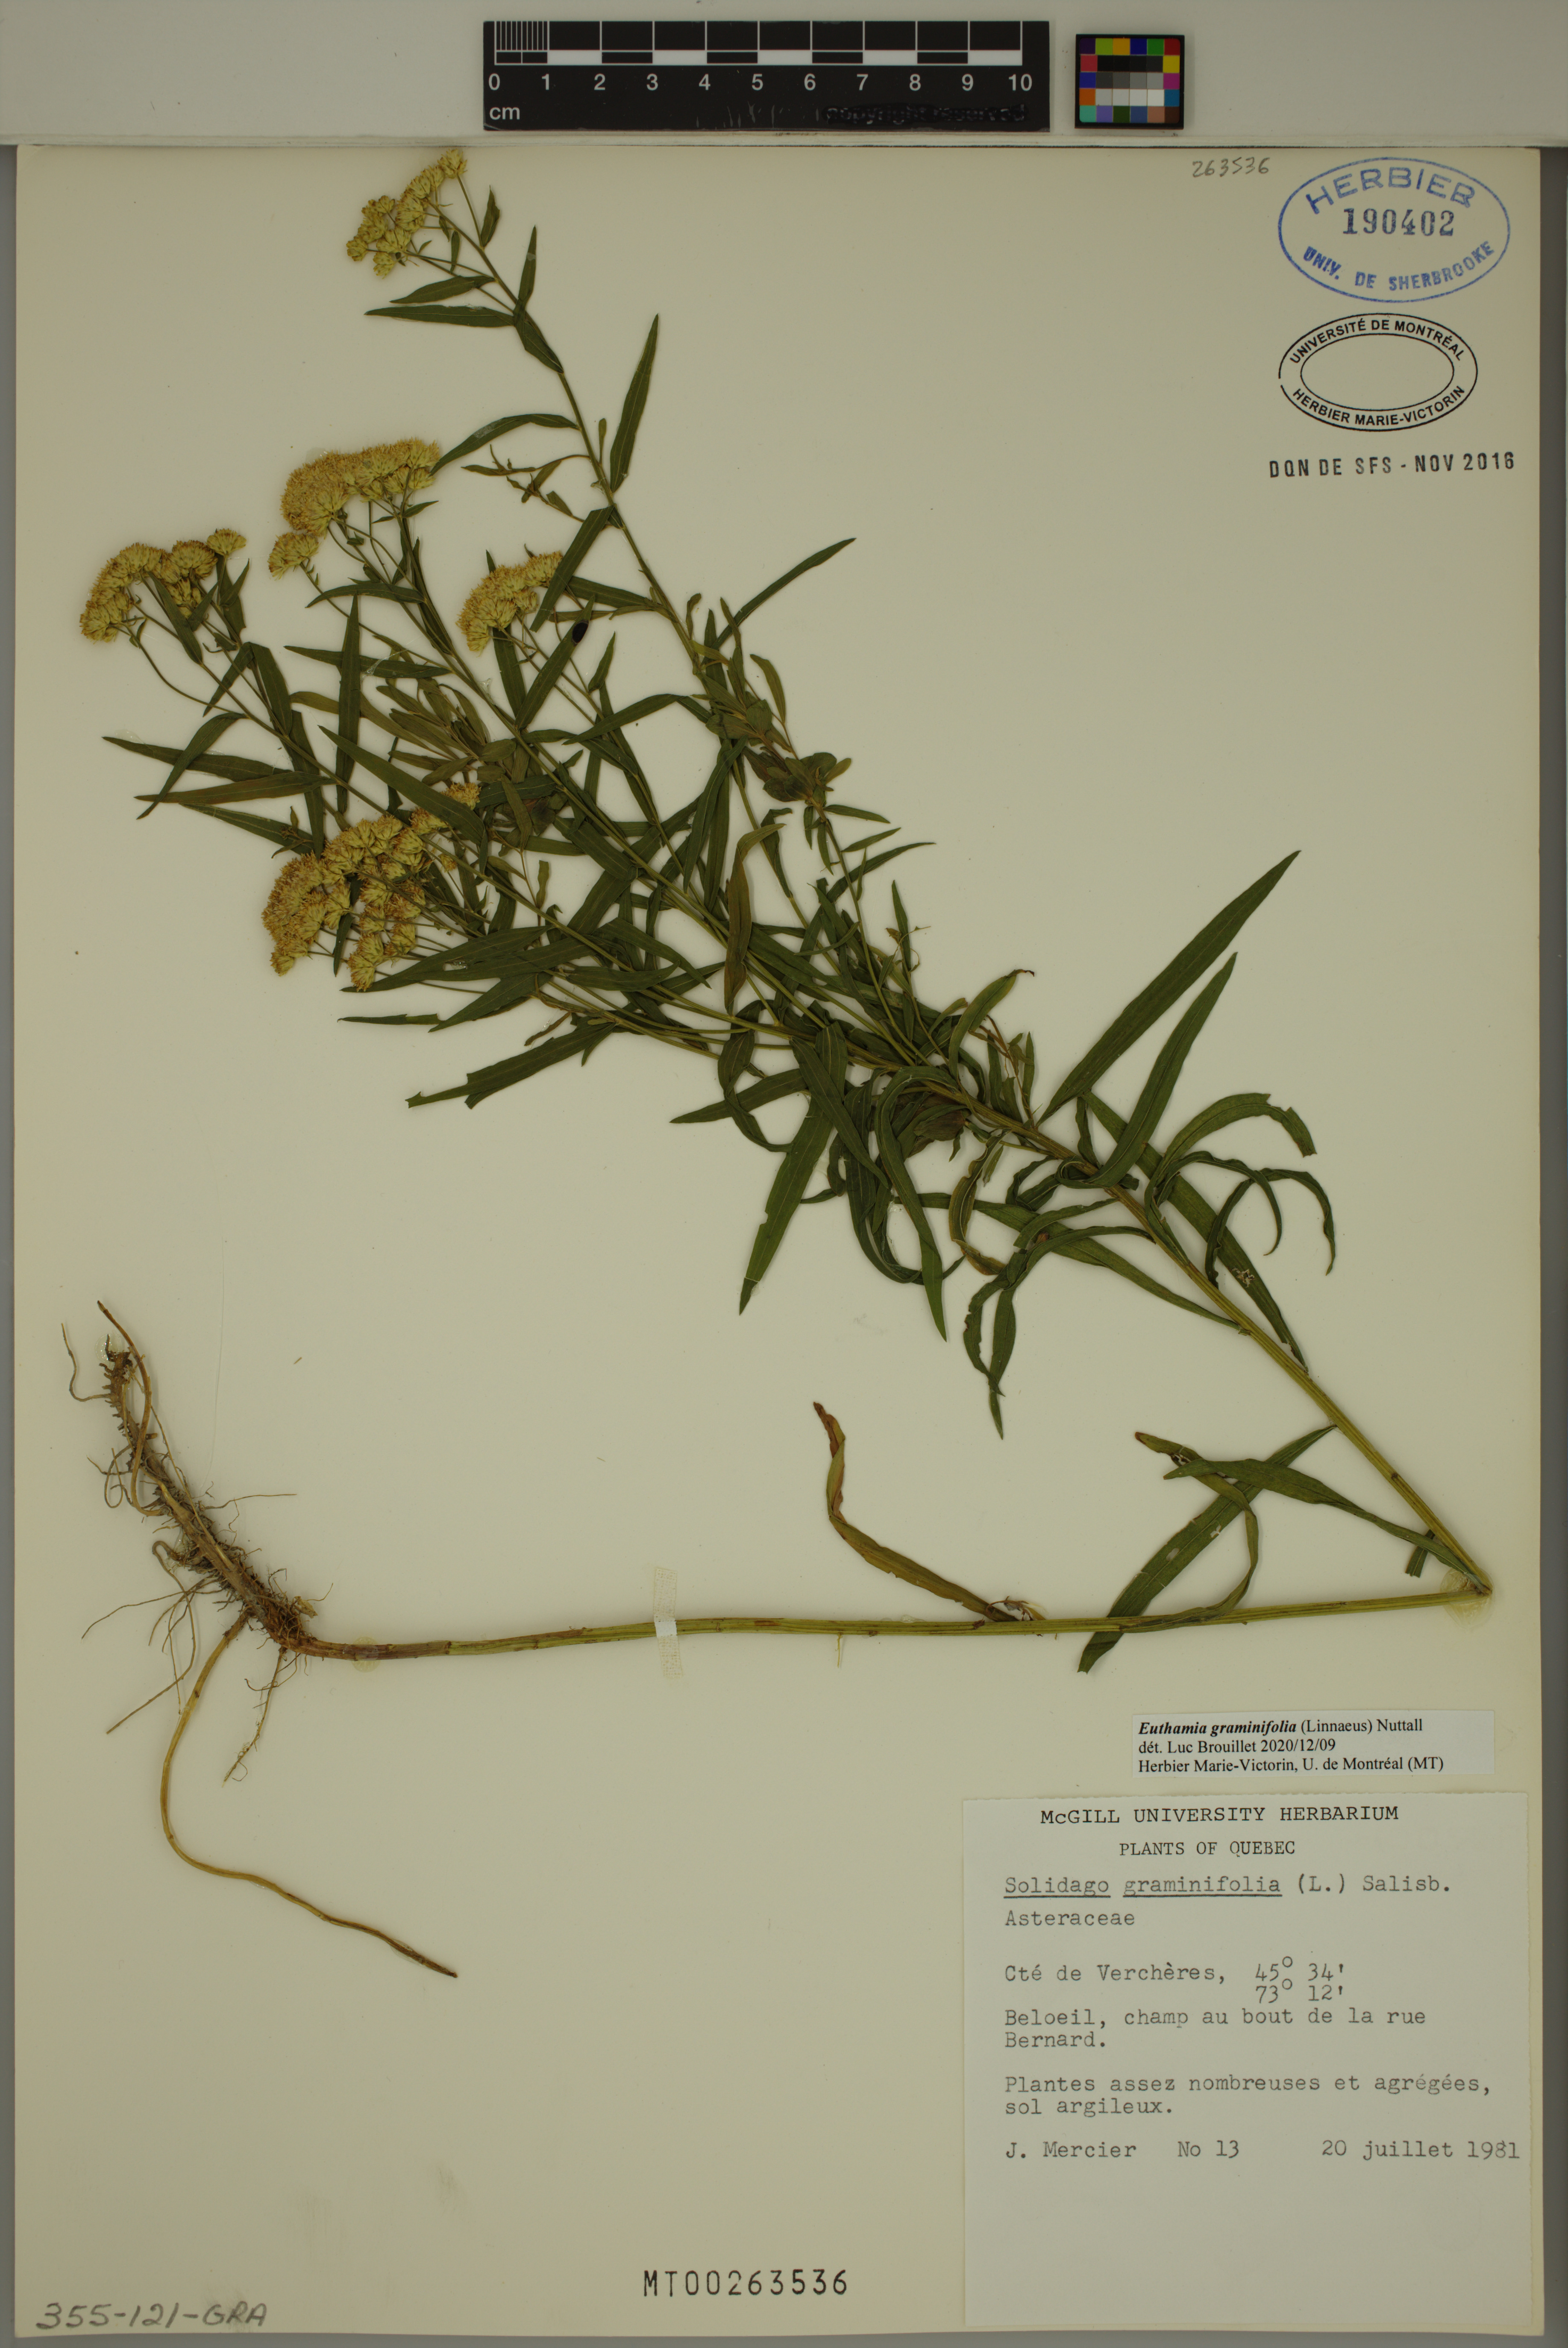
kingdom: Plantae
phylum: Tracheophyta
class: Magnoliopsida
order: Asterales
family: Asteraceae
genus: Euthamia
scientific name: Euthamia graminifolia
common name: Common goldentop
